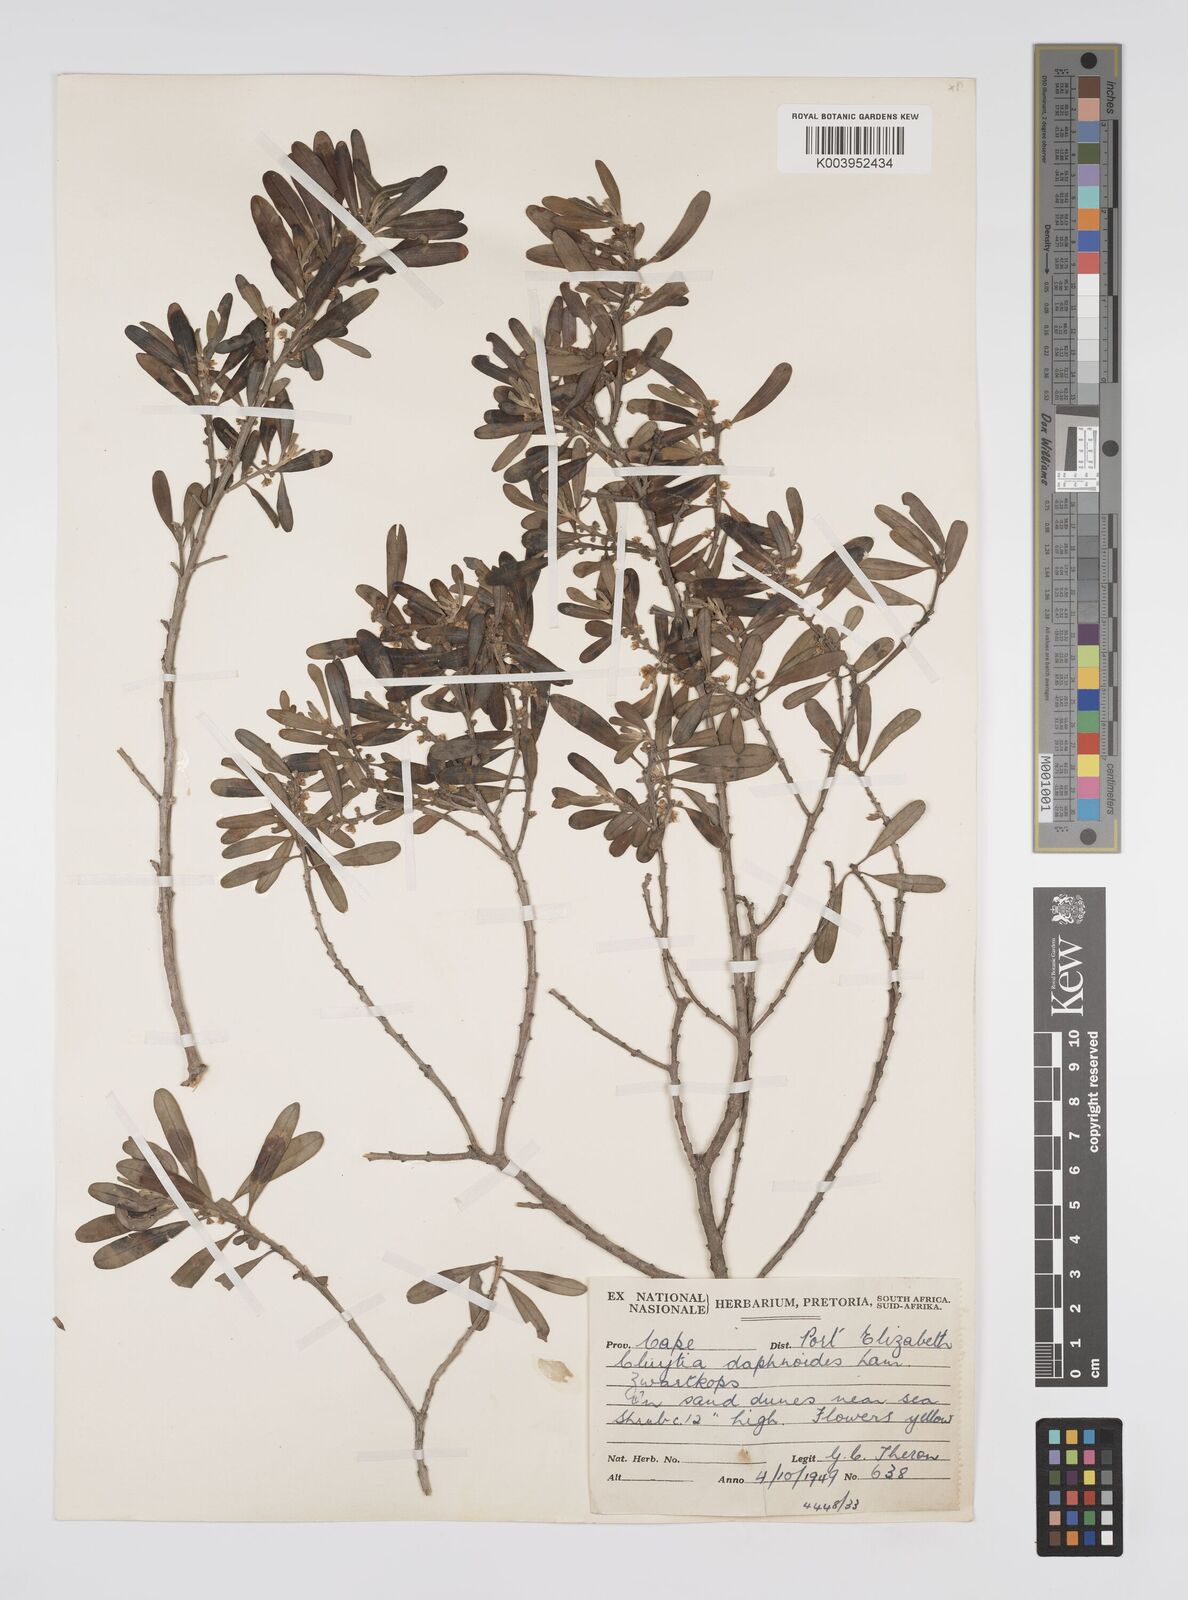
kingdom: Plantae
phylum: Tracheophyta
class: Magnoliopsida
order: Malpighiales
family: Peraceae
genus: Clutia
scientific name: Clutia daphnoides
